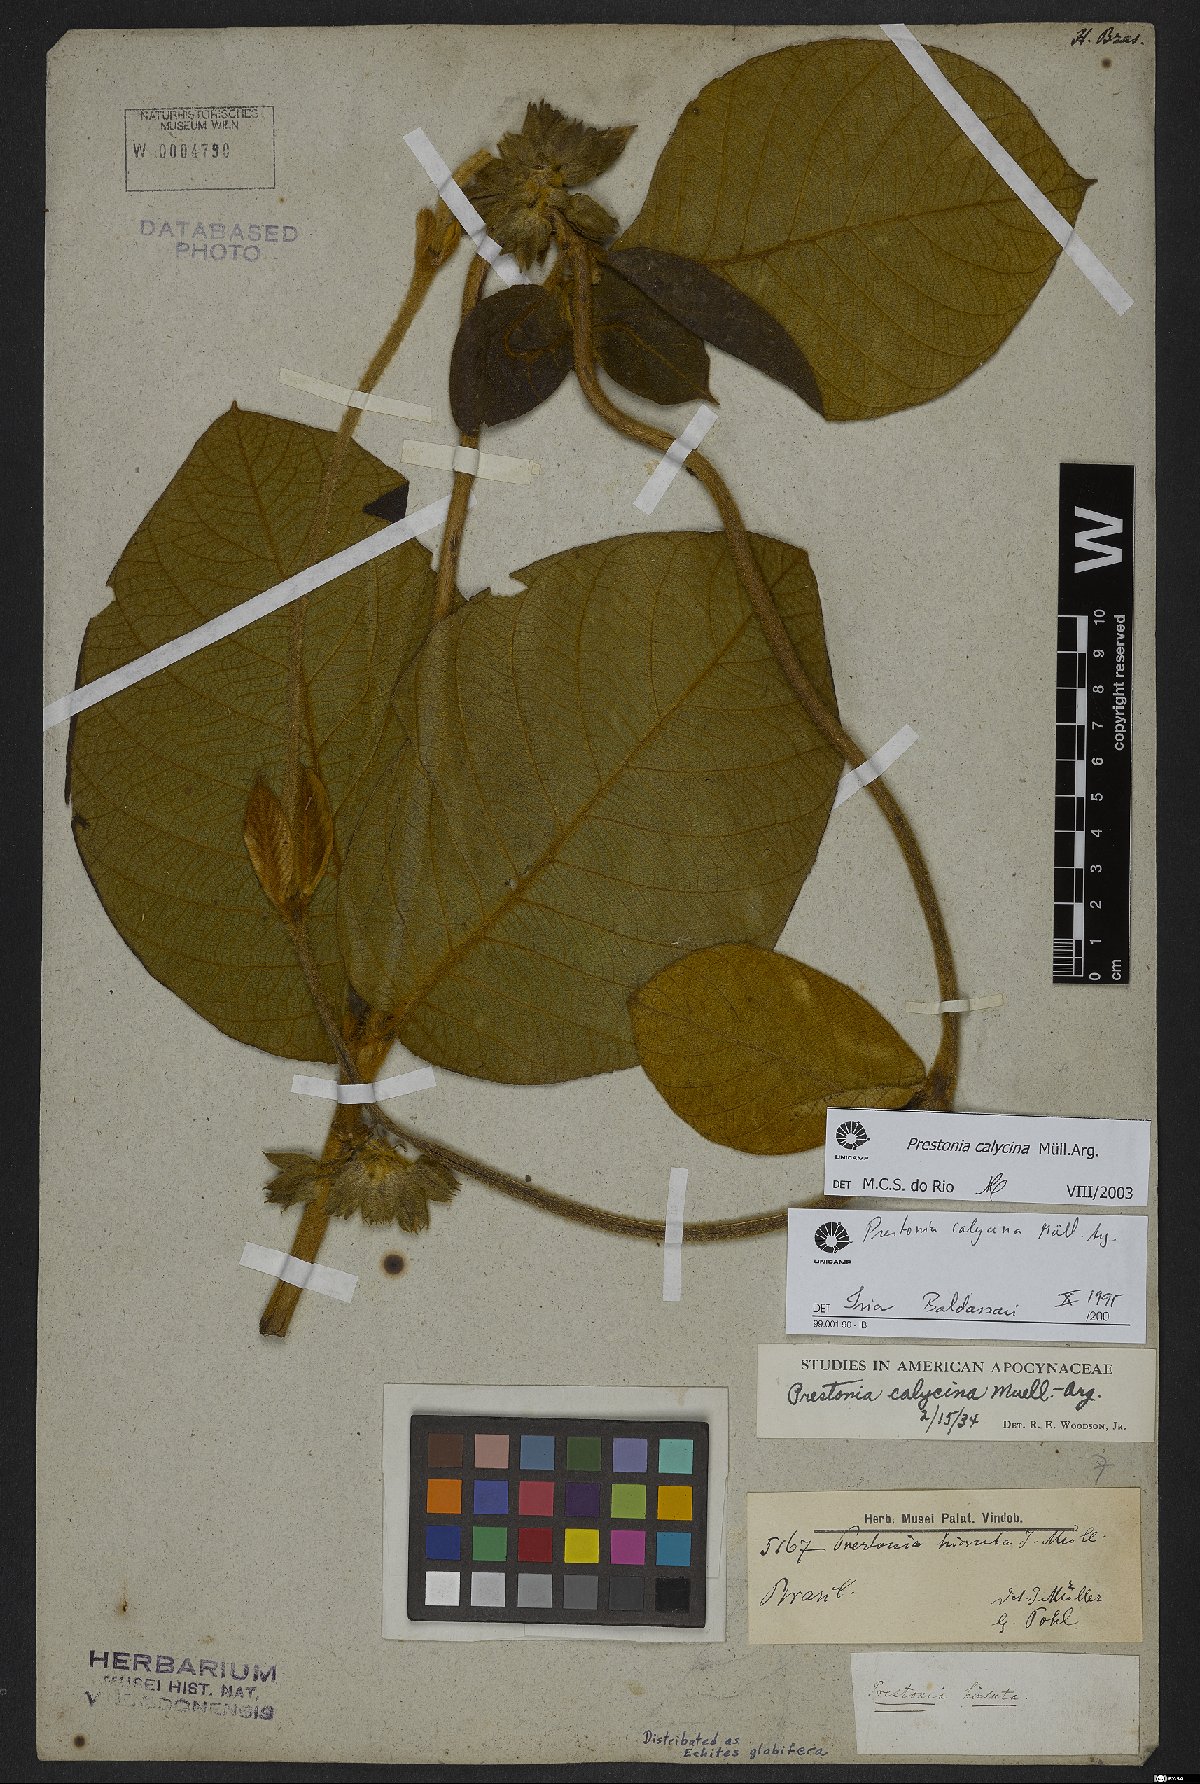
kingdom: Plantae
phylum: Tracheophyta
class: Magnoliopsida
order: Gentianales
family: Apocynaceae
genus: Prestonia
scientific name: Prestonia calycina
